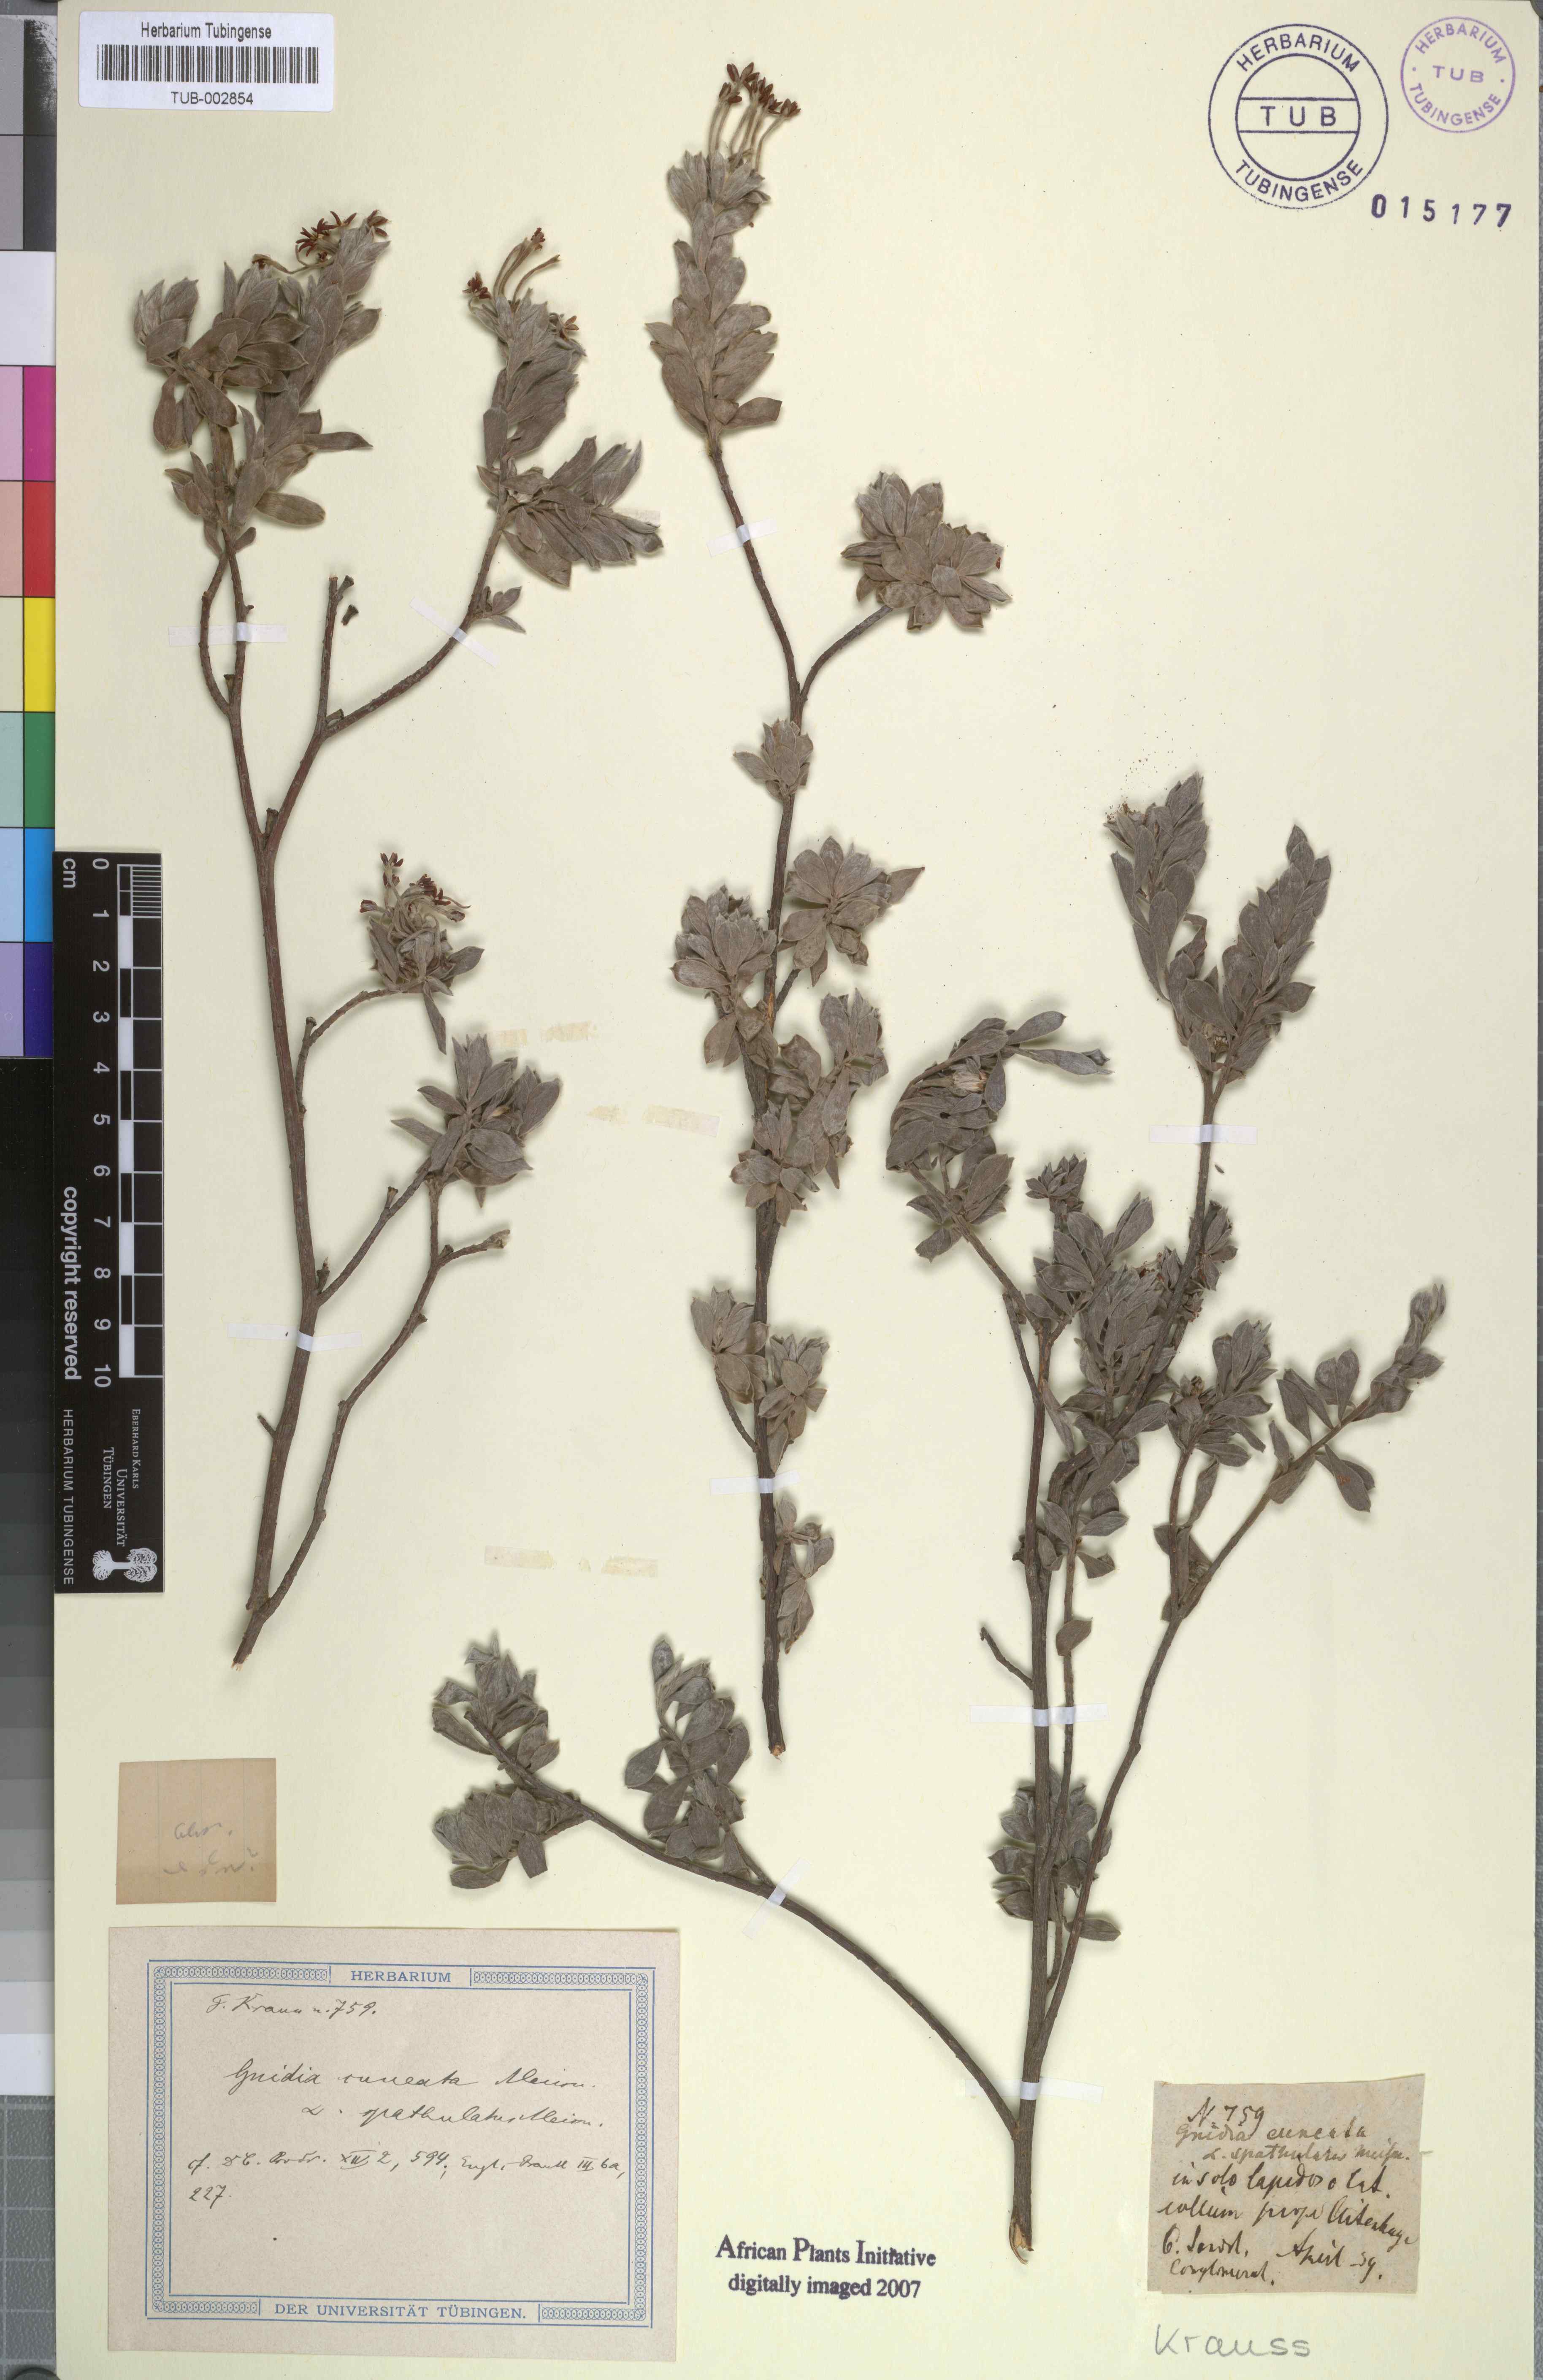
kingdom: Plantae
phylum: Tracheophyta
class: Magnoliopsida
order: Malvales
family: Thymelaeaceae
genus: Gnidia
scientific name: Gnidia cuneata
